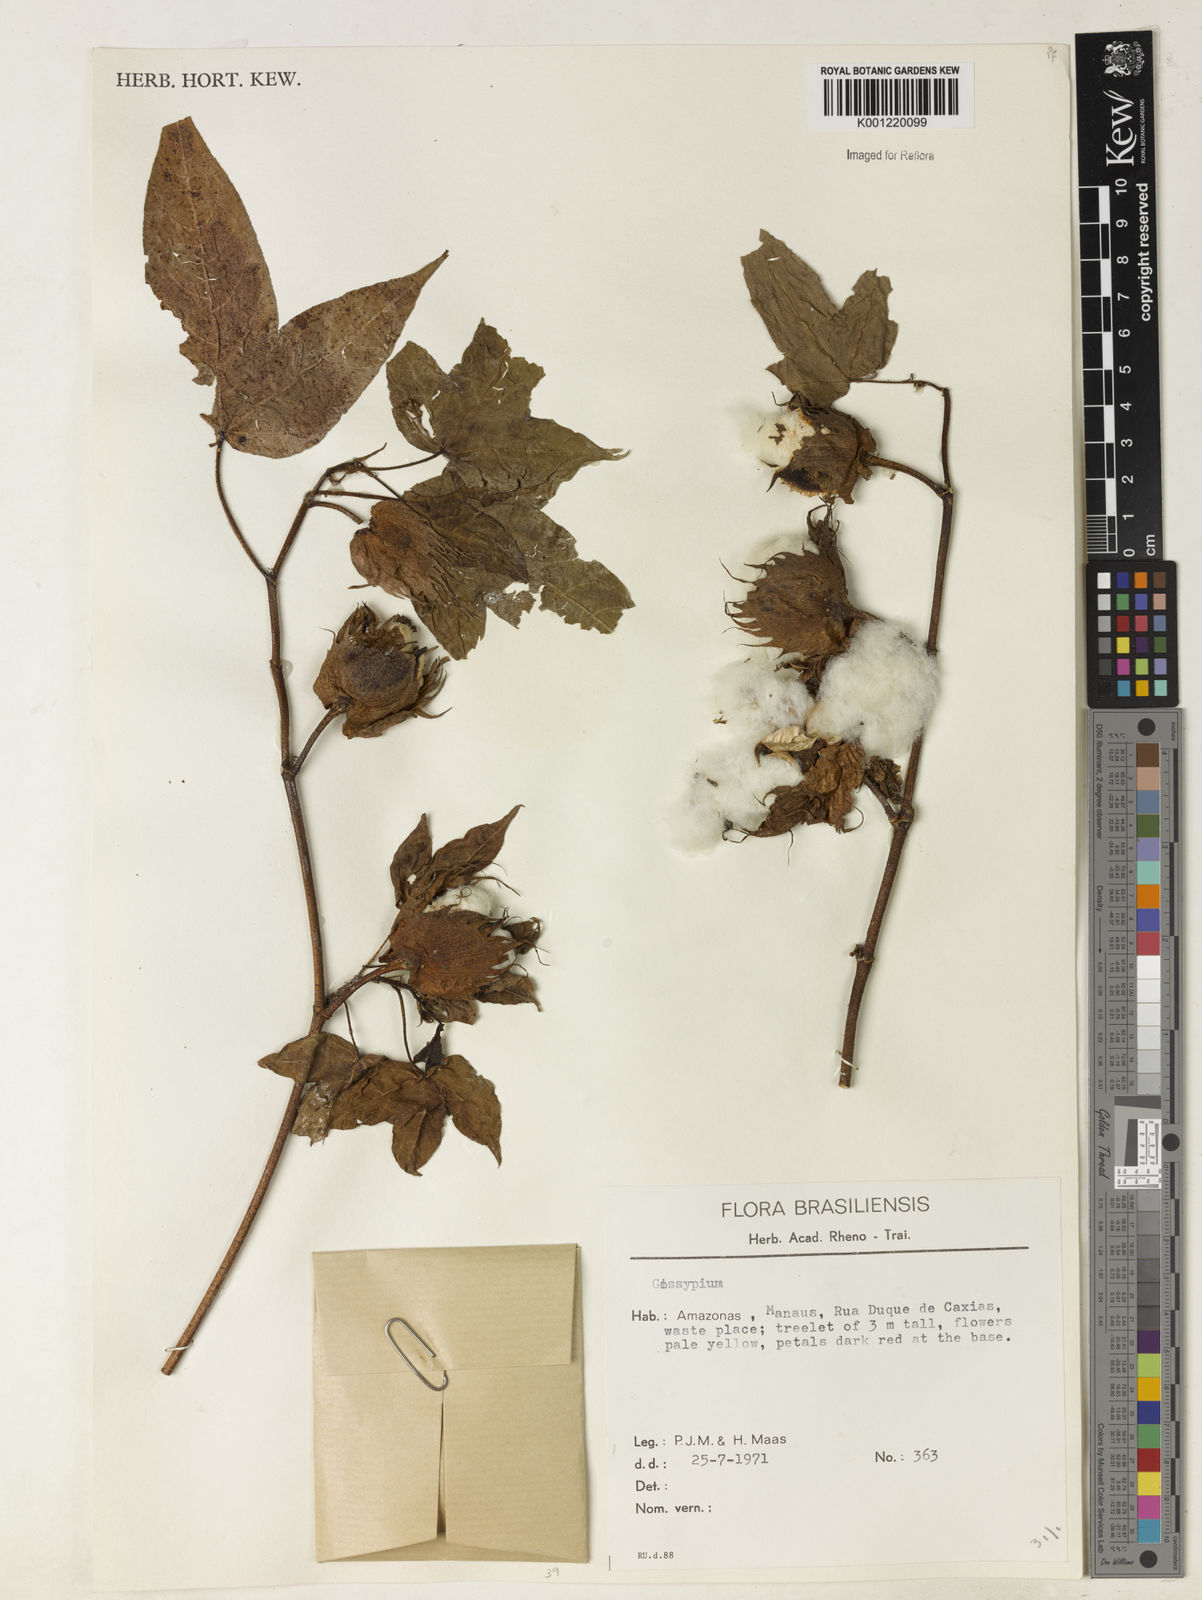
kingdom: Plantae
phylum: Tracheophyta
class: Magnoliopsida
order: Malvales
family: Malvaceae
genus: Gossypium
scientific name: Gossypium
